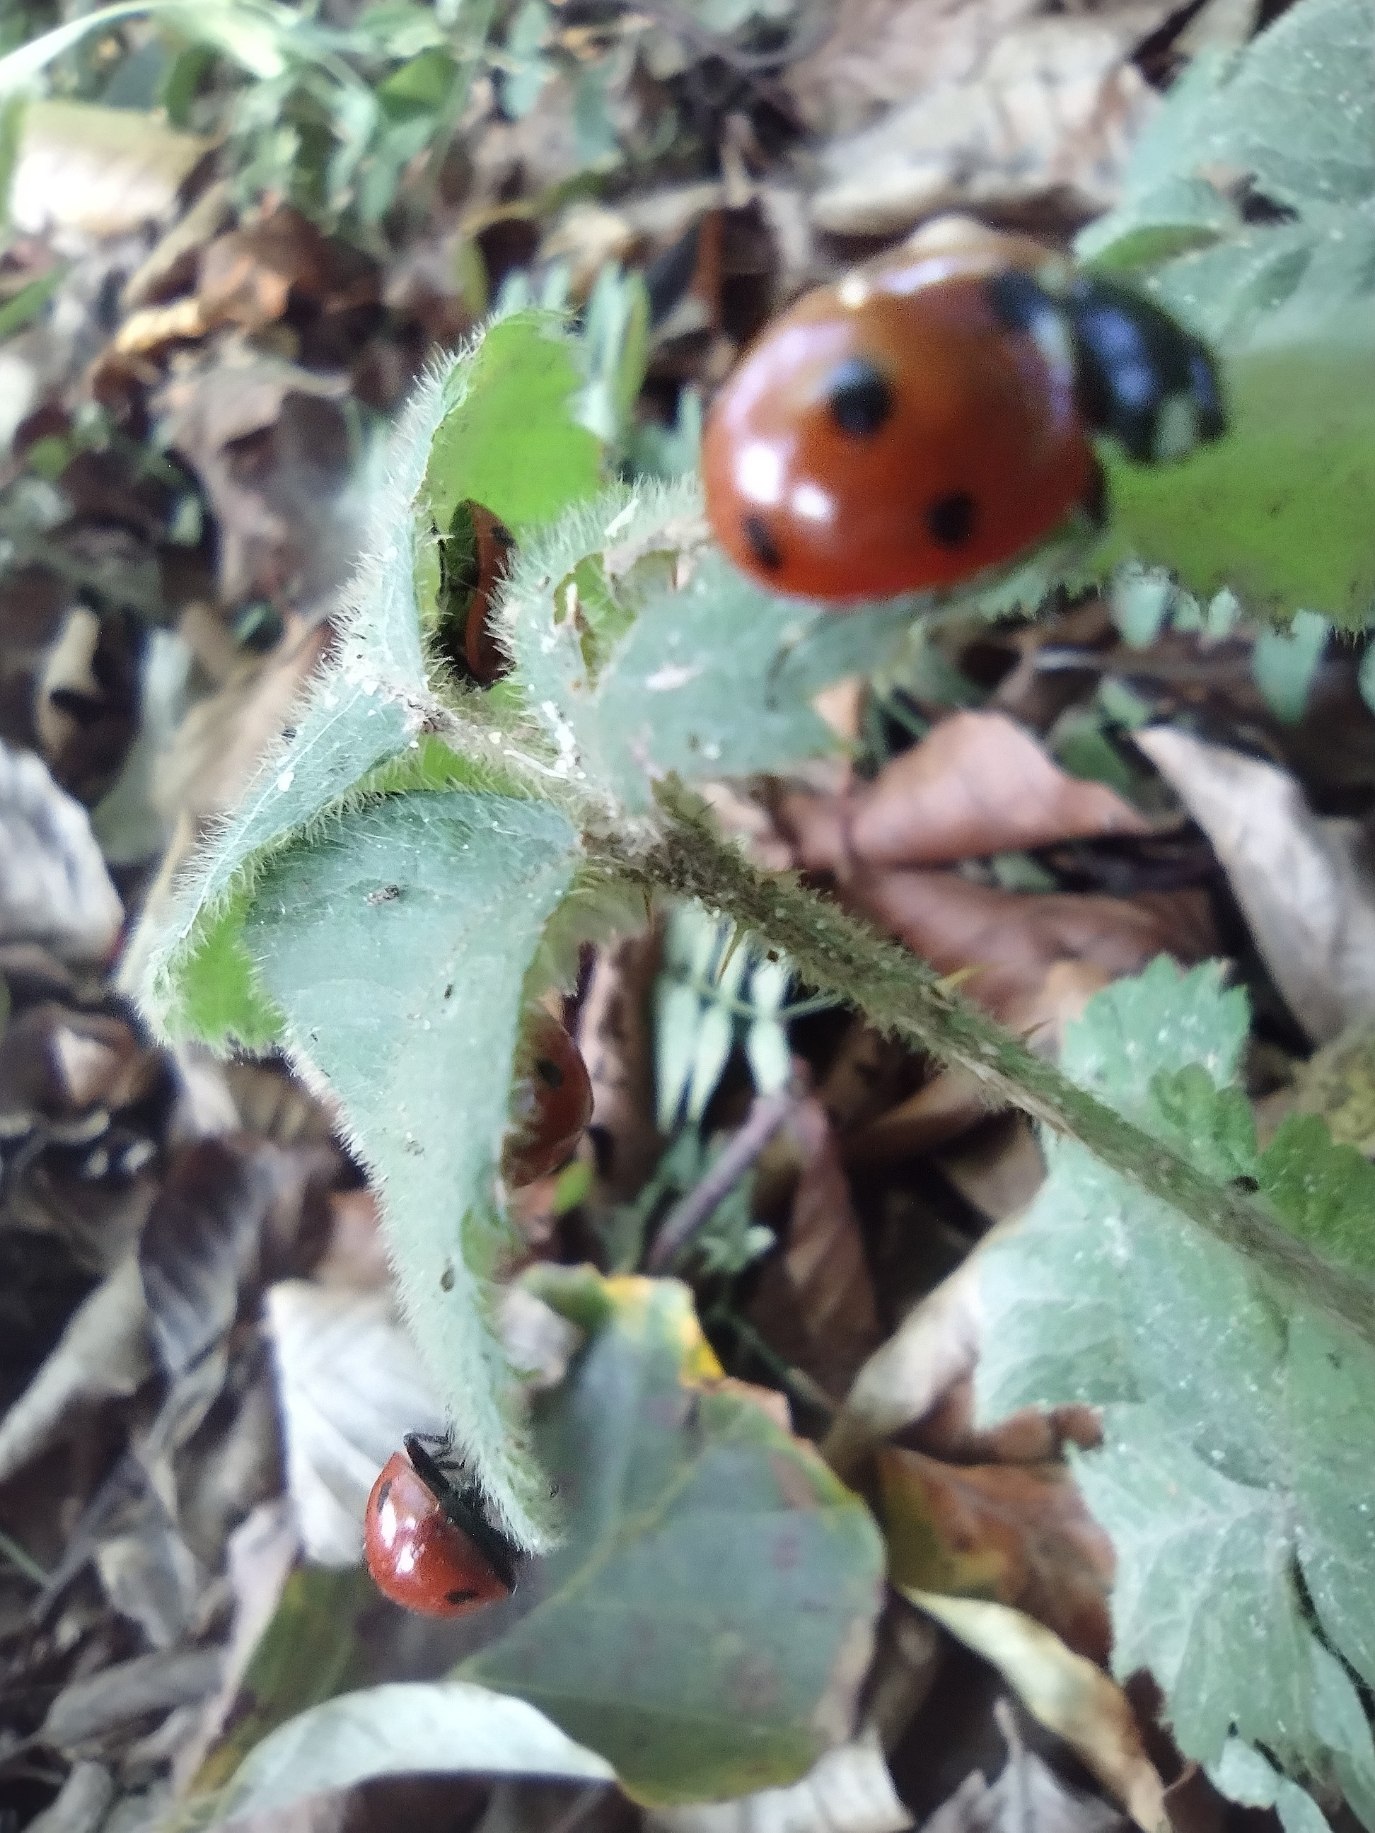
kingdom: Animalia
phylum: Arthropoda
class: Insecta
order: Coleoptera
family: Coccinellidae
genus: Coccinella
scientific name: Coccinella septempunctata
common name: Syvplettet mariehøne
